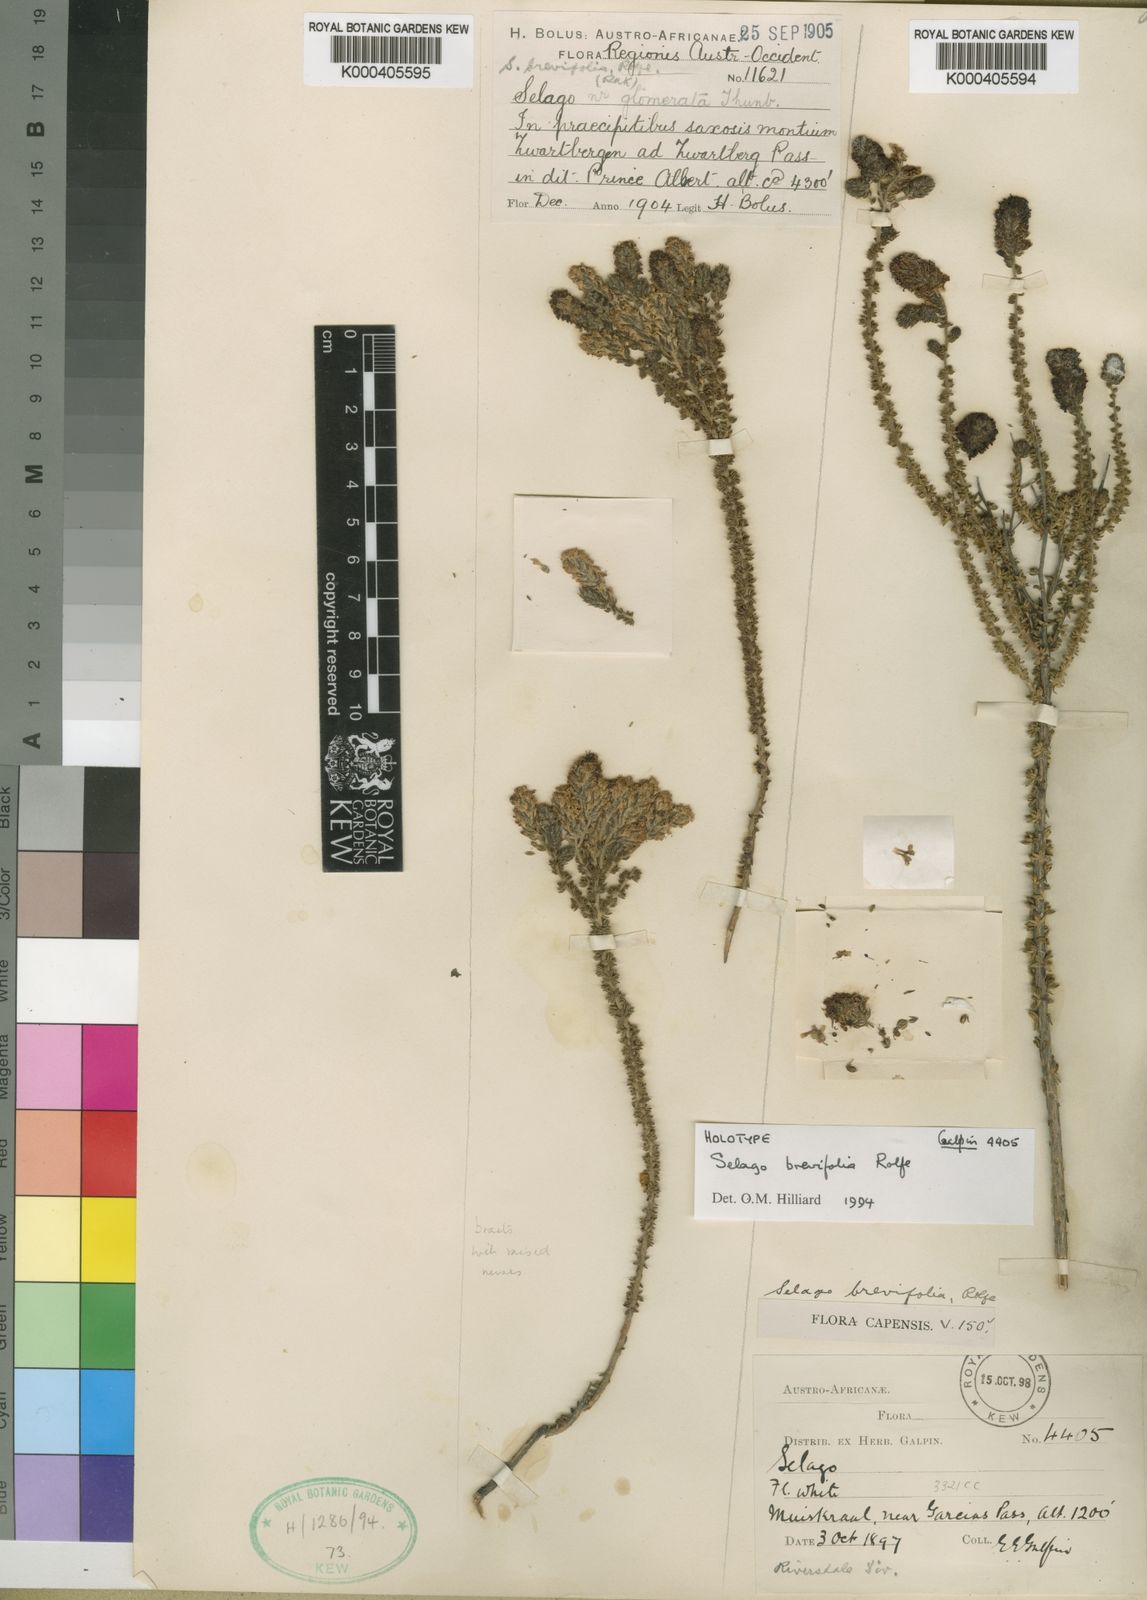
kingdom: Plantae
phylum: Tracheophyta
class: Magnoliopsida
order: Lamiales
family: Scrophulariaceae
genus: Selago
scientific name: Selago brevifolia
